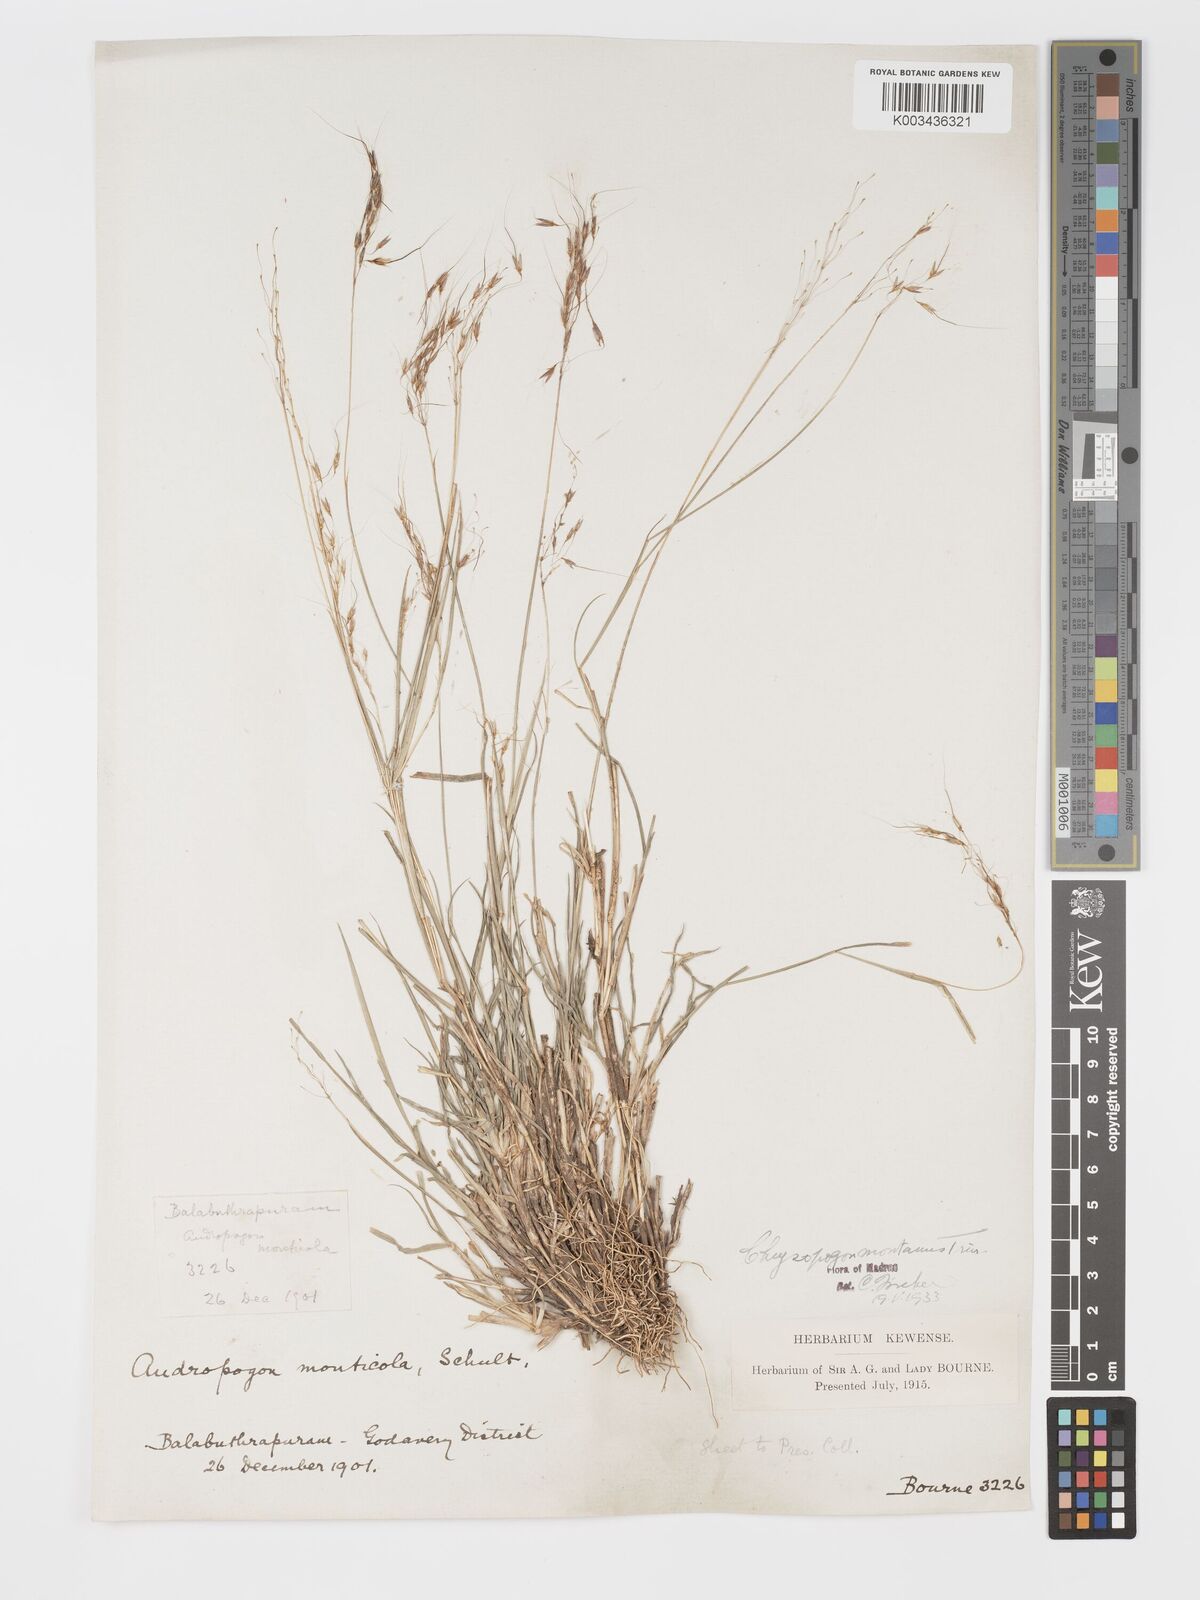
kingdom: Plantae
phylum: Tracheophyta
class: Liliopsida
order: Poales
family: Poaceae
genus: Chrysopogon
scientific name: Chrysopogon fulvus
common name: Red false beardgrass
